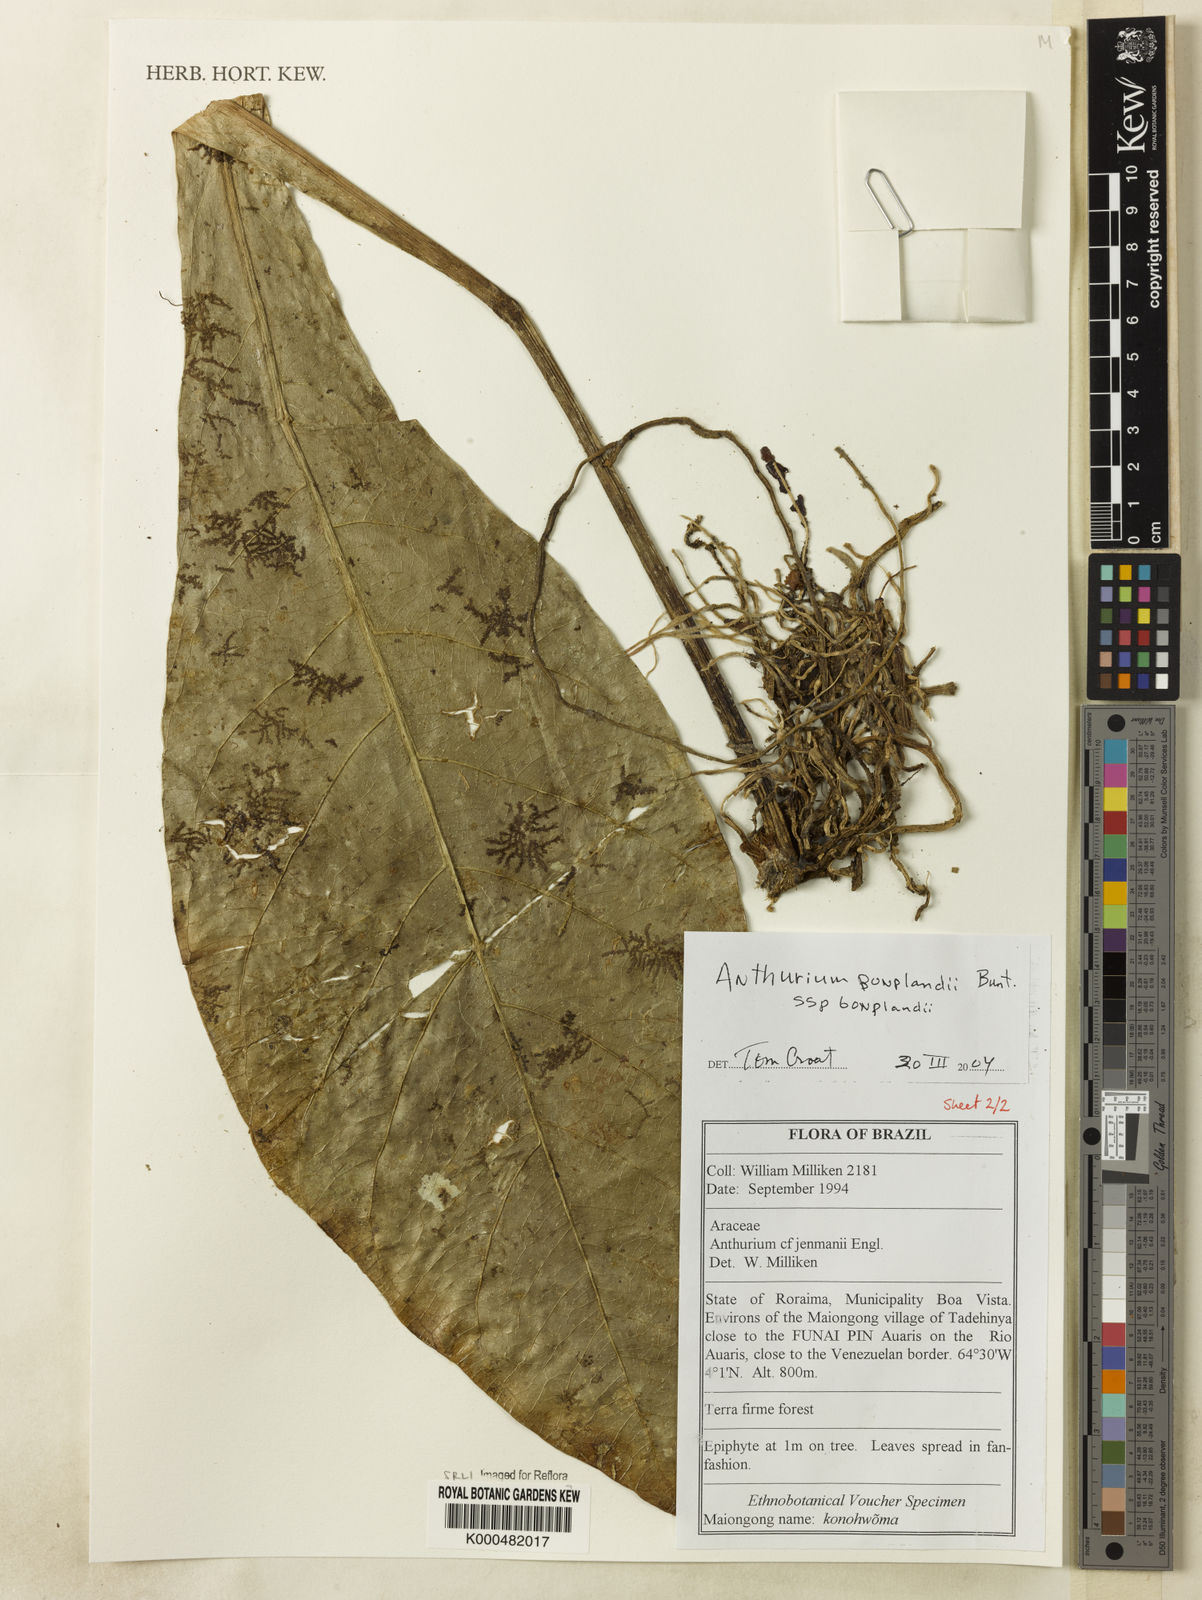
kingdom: Plantae
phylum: Tracheophyta
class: Liliopsida
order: Alismatales
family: Araceae
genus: Anthurium
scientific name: Anthurium bonplandii
